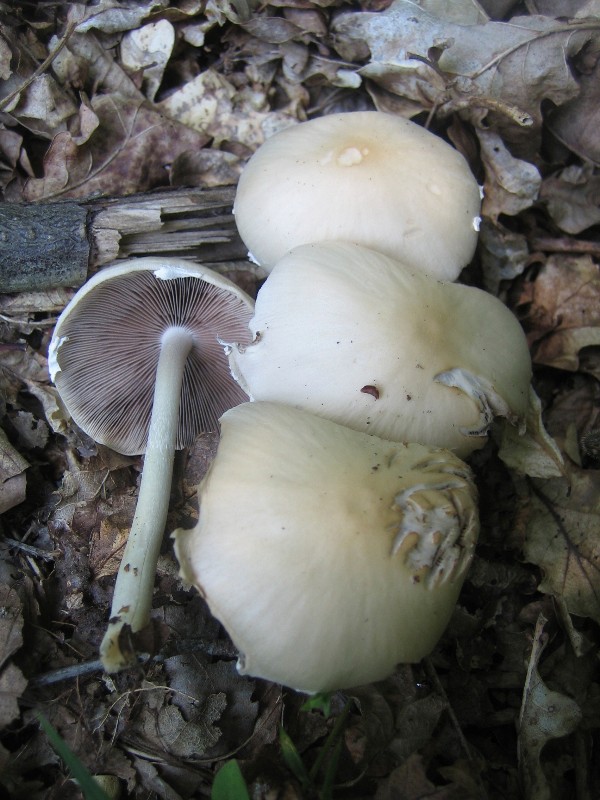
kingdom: Fungi
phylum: Basidiomycota
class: Agaricomycetes
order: Agaricales
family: Psathyrellaceae
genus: Candolleomyces
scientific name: Candolleomyces candolleanus
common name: Candolles mørkhat
